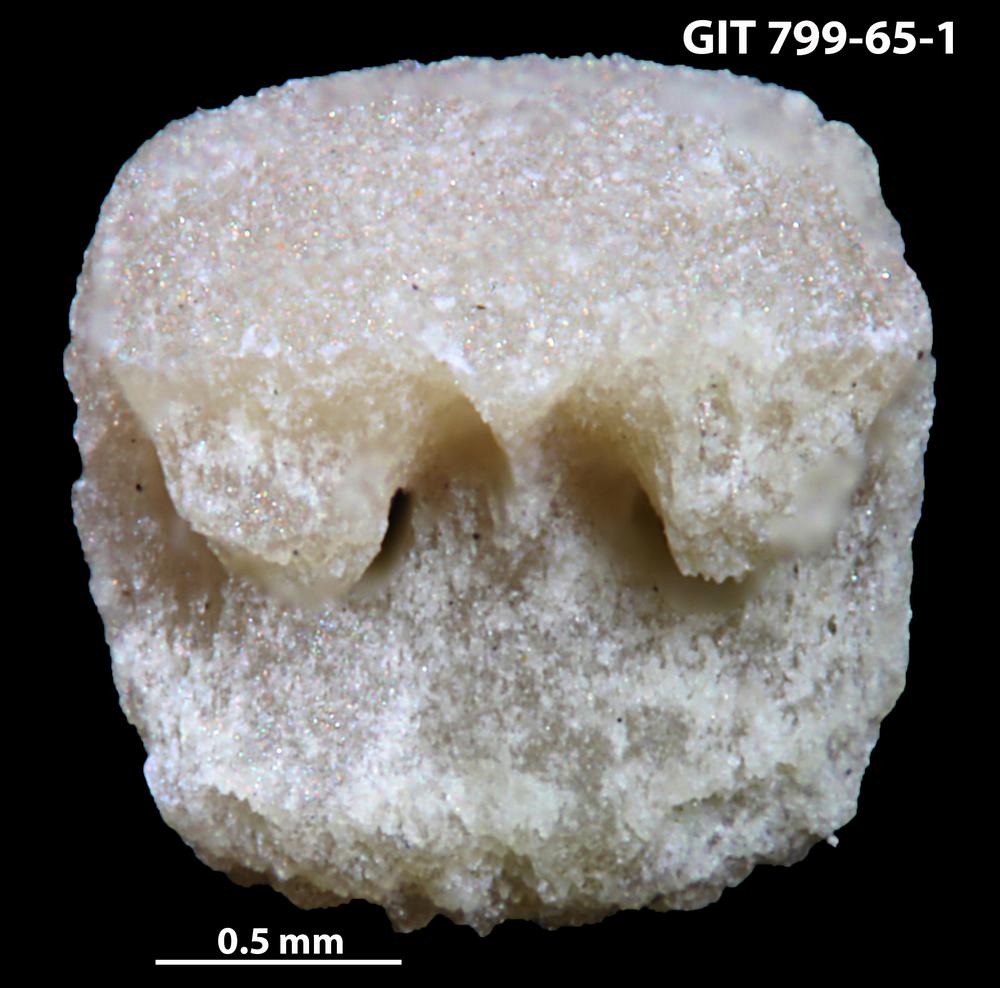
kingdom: Animalia
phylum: Echinodermata
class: Crinoidea
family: Cyclocystoididae
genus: Polytryphocycloides
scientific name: Polytryphocycloides
